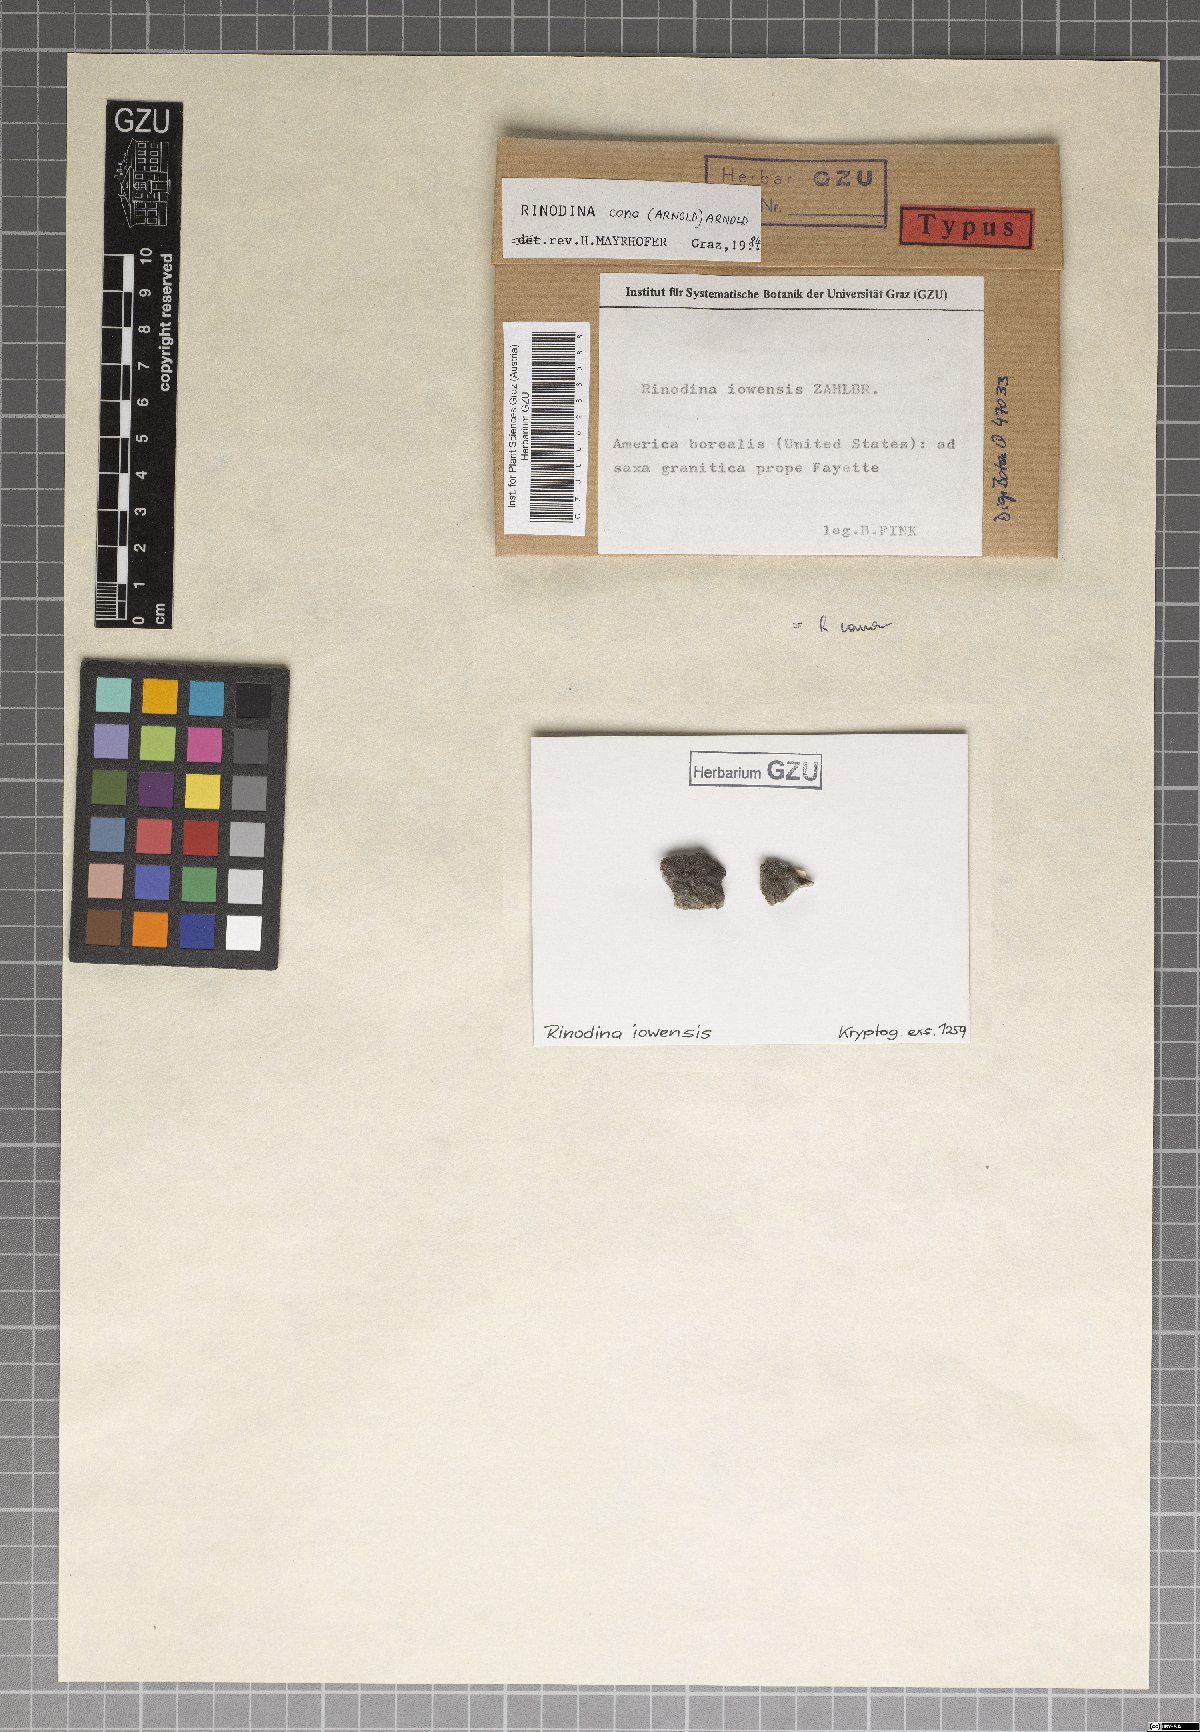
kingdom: Fungi
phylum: Ascomycota
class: Lecanoromycetes
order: Caliciales
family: Physciaceae
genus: Rinodina
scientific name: Rinodina iowensis
